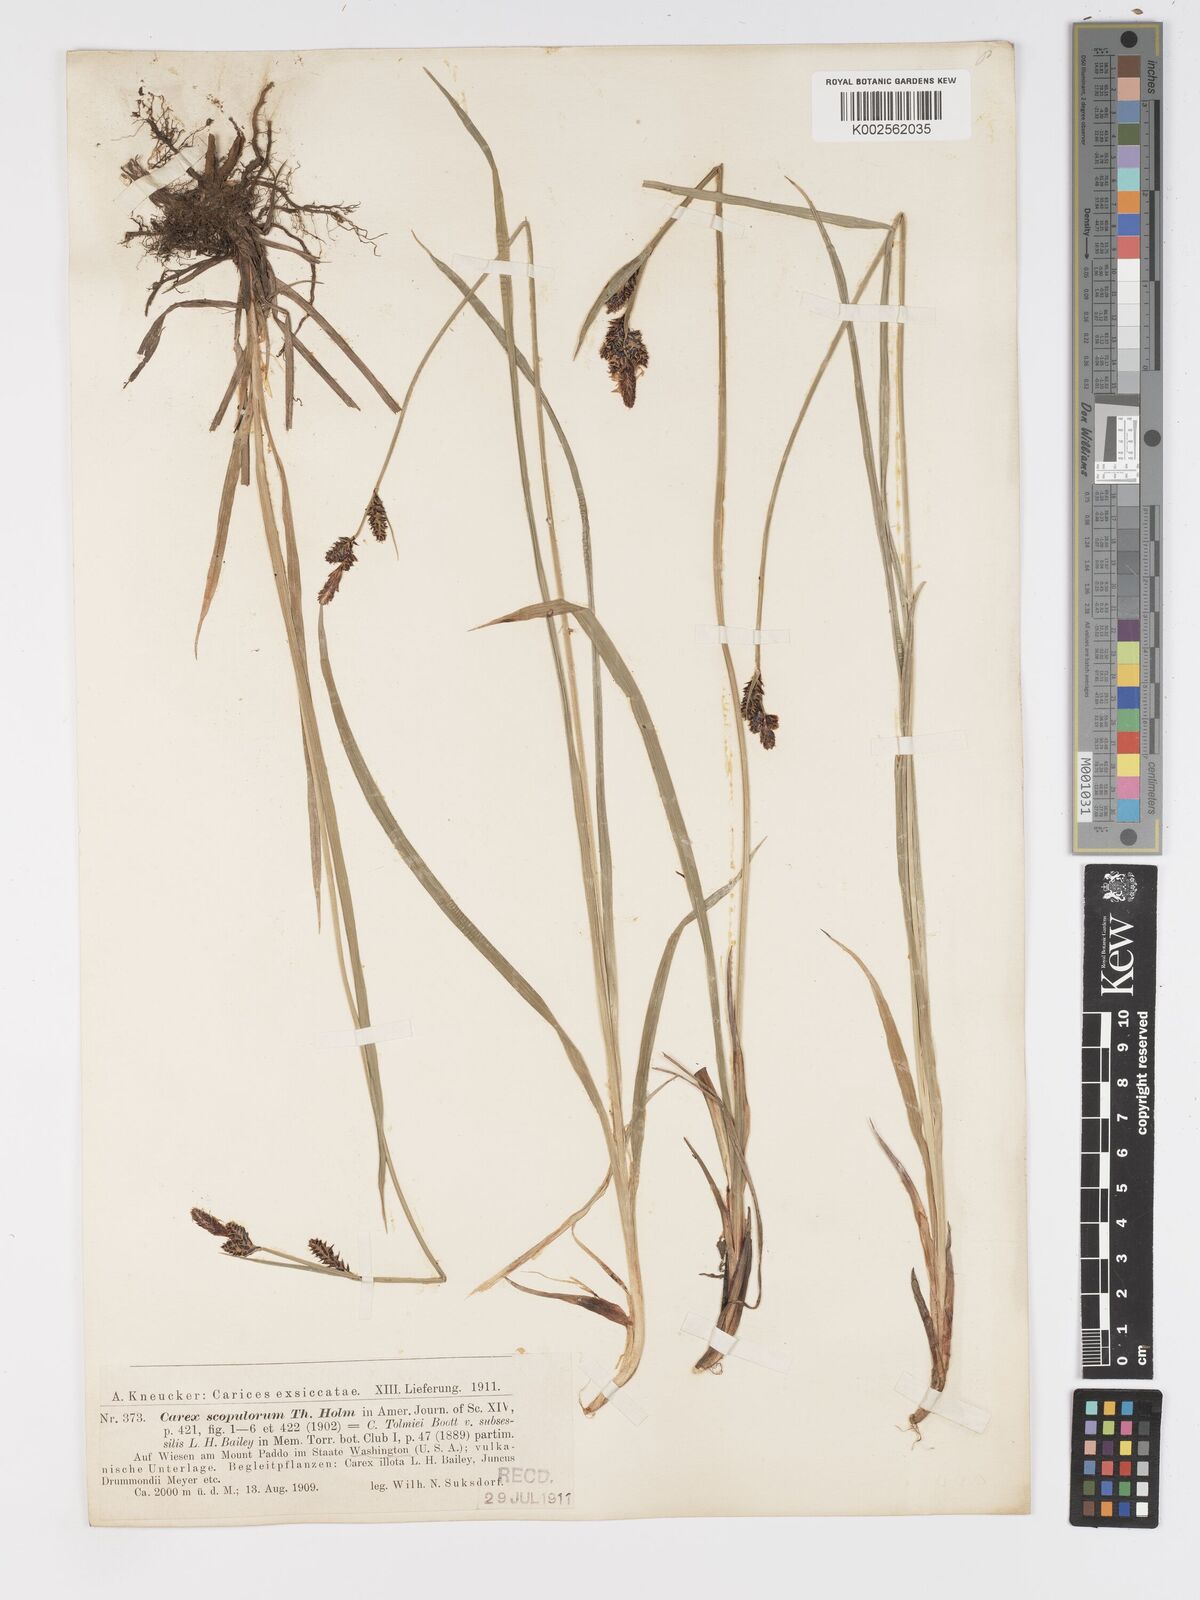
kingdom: Plantae
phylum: Tracheophyta
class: Liliopsida
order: Poales
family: Cyperaceae
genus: Carex
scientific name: Carex scopulorum
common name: Holm's rocky mountain sedge
